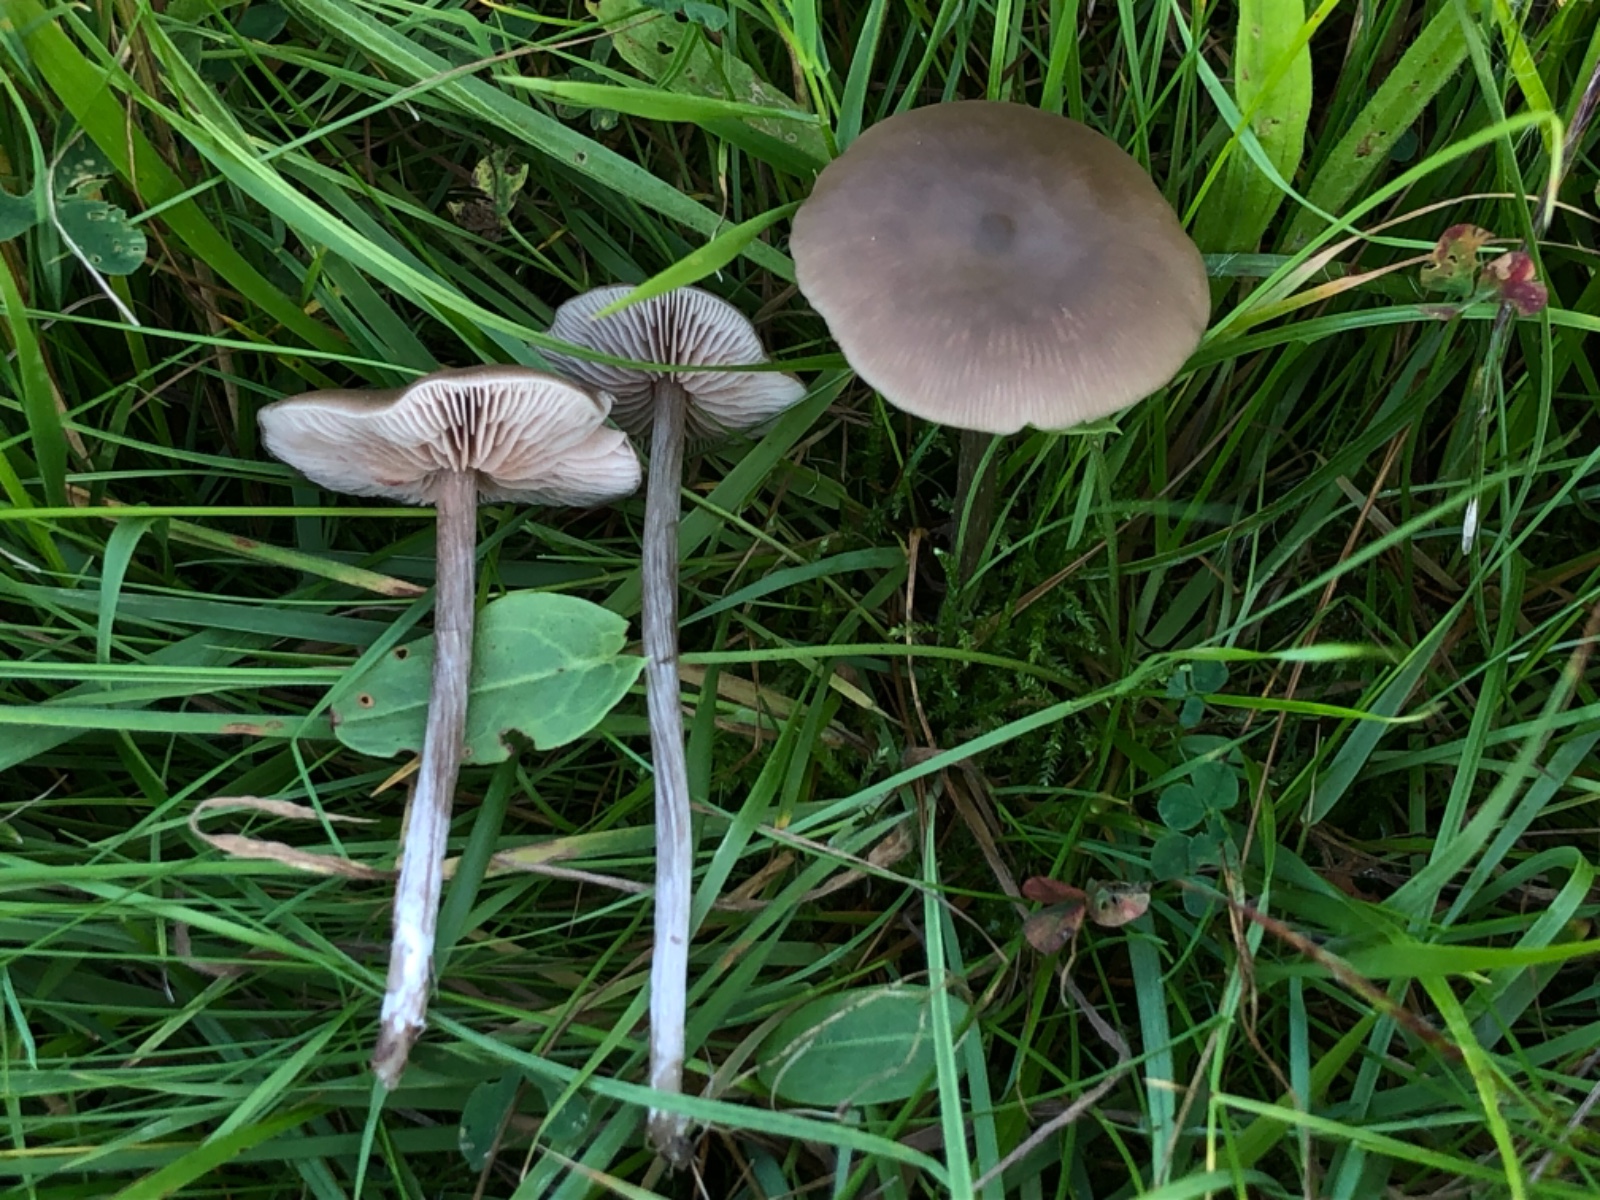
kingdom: Fungi
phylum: Basidiomycota
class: Agaricomycetes
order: Agaricales
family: Entolomataceae
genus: Entoloma
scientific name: Entoloma
